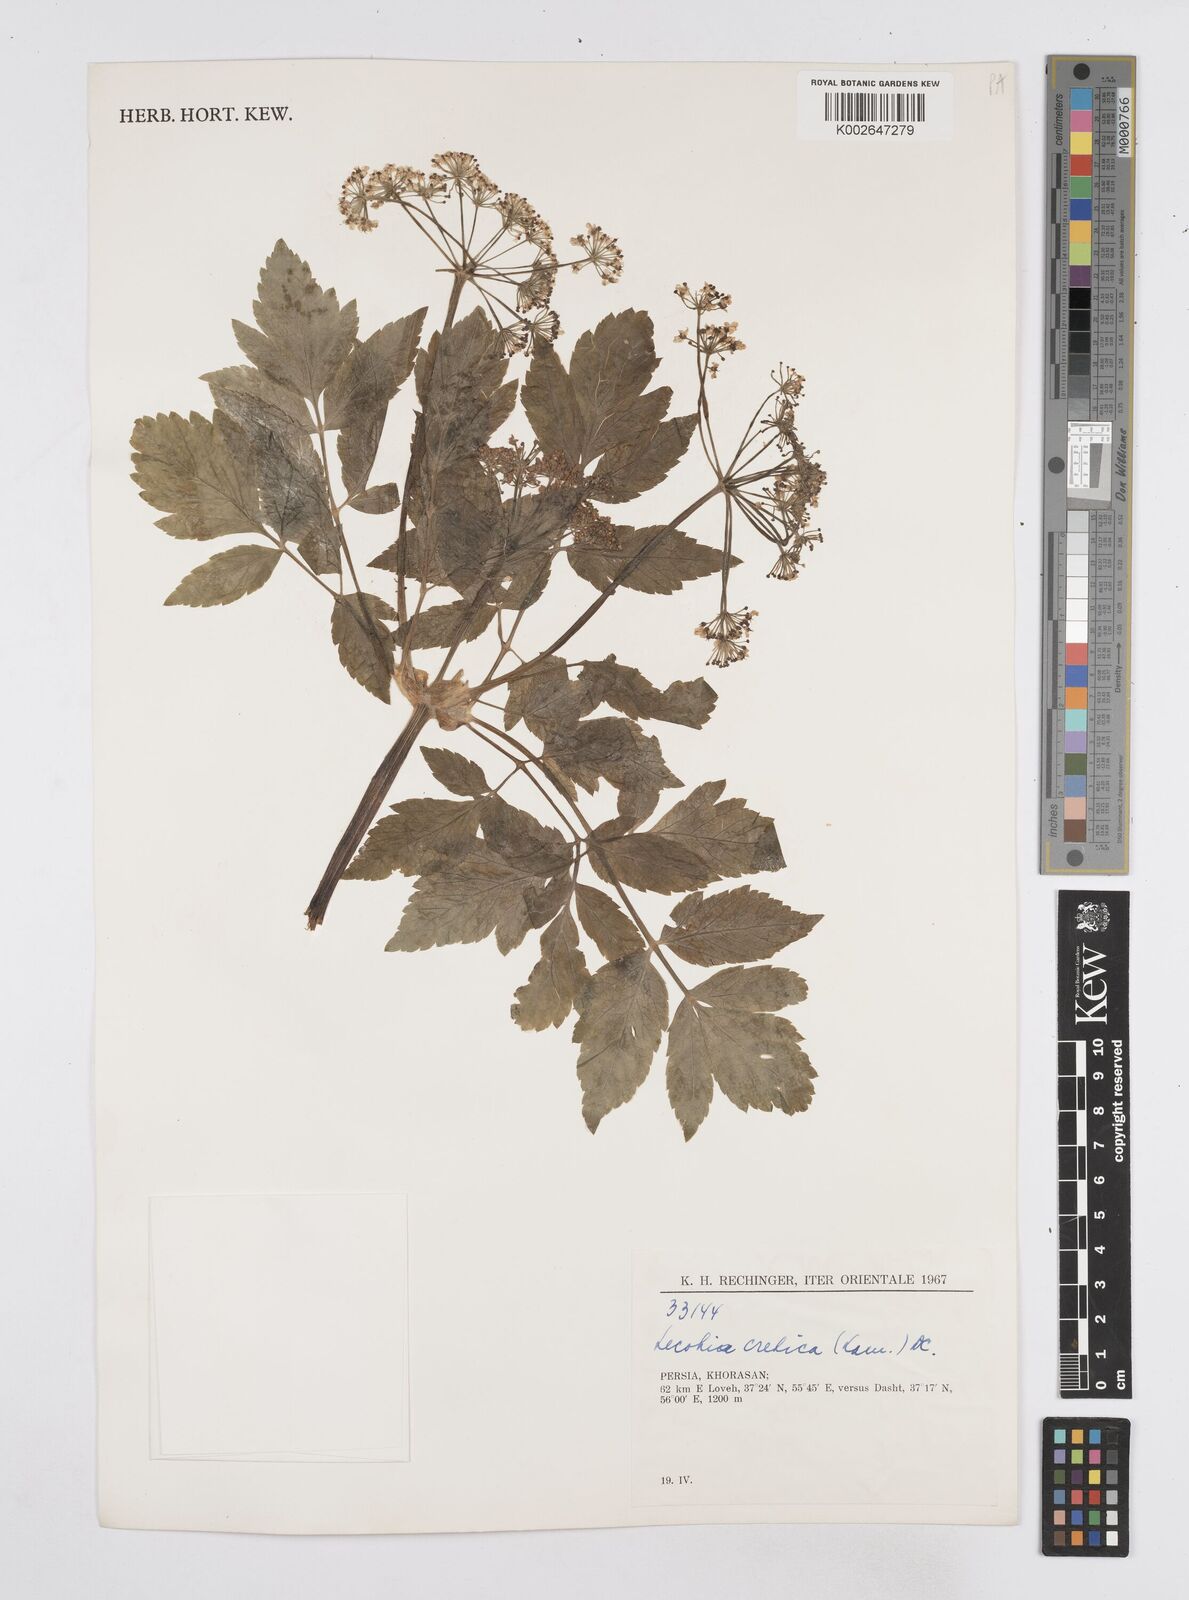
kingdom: Plantae
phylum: Tracheophyta
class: Magnoliopsida
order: Apiales
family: Apiaceae
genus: Lecokia
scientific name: Lecokia cretica
